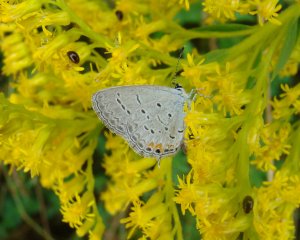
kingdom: Animalia
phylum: Arthropoda
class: Insecta
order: Lepidoptera
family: Lycaenidae
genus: Elkalyce
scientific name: Elkalyce comyntas
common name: Eastern Tailed-Blue
